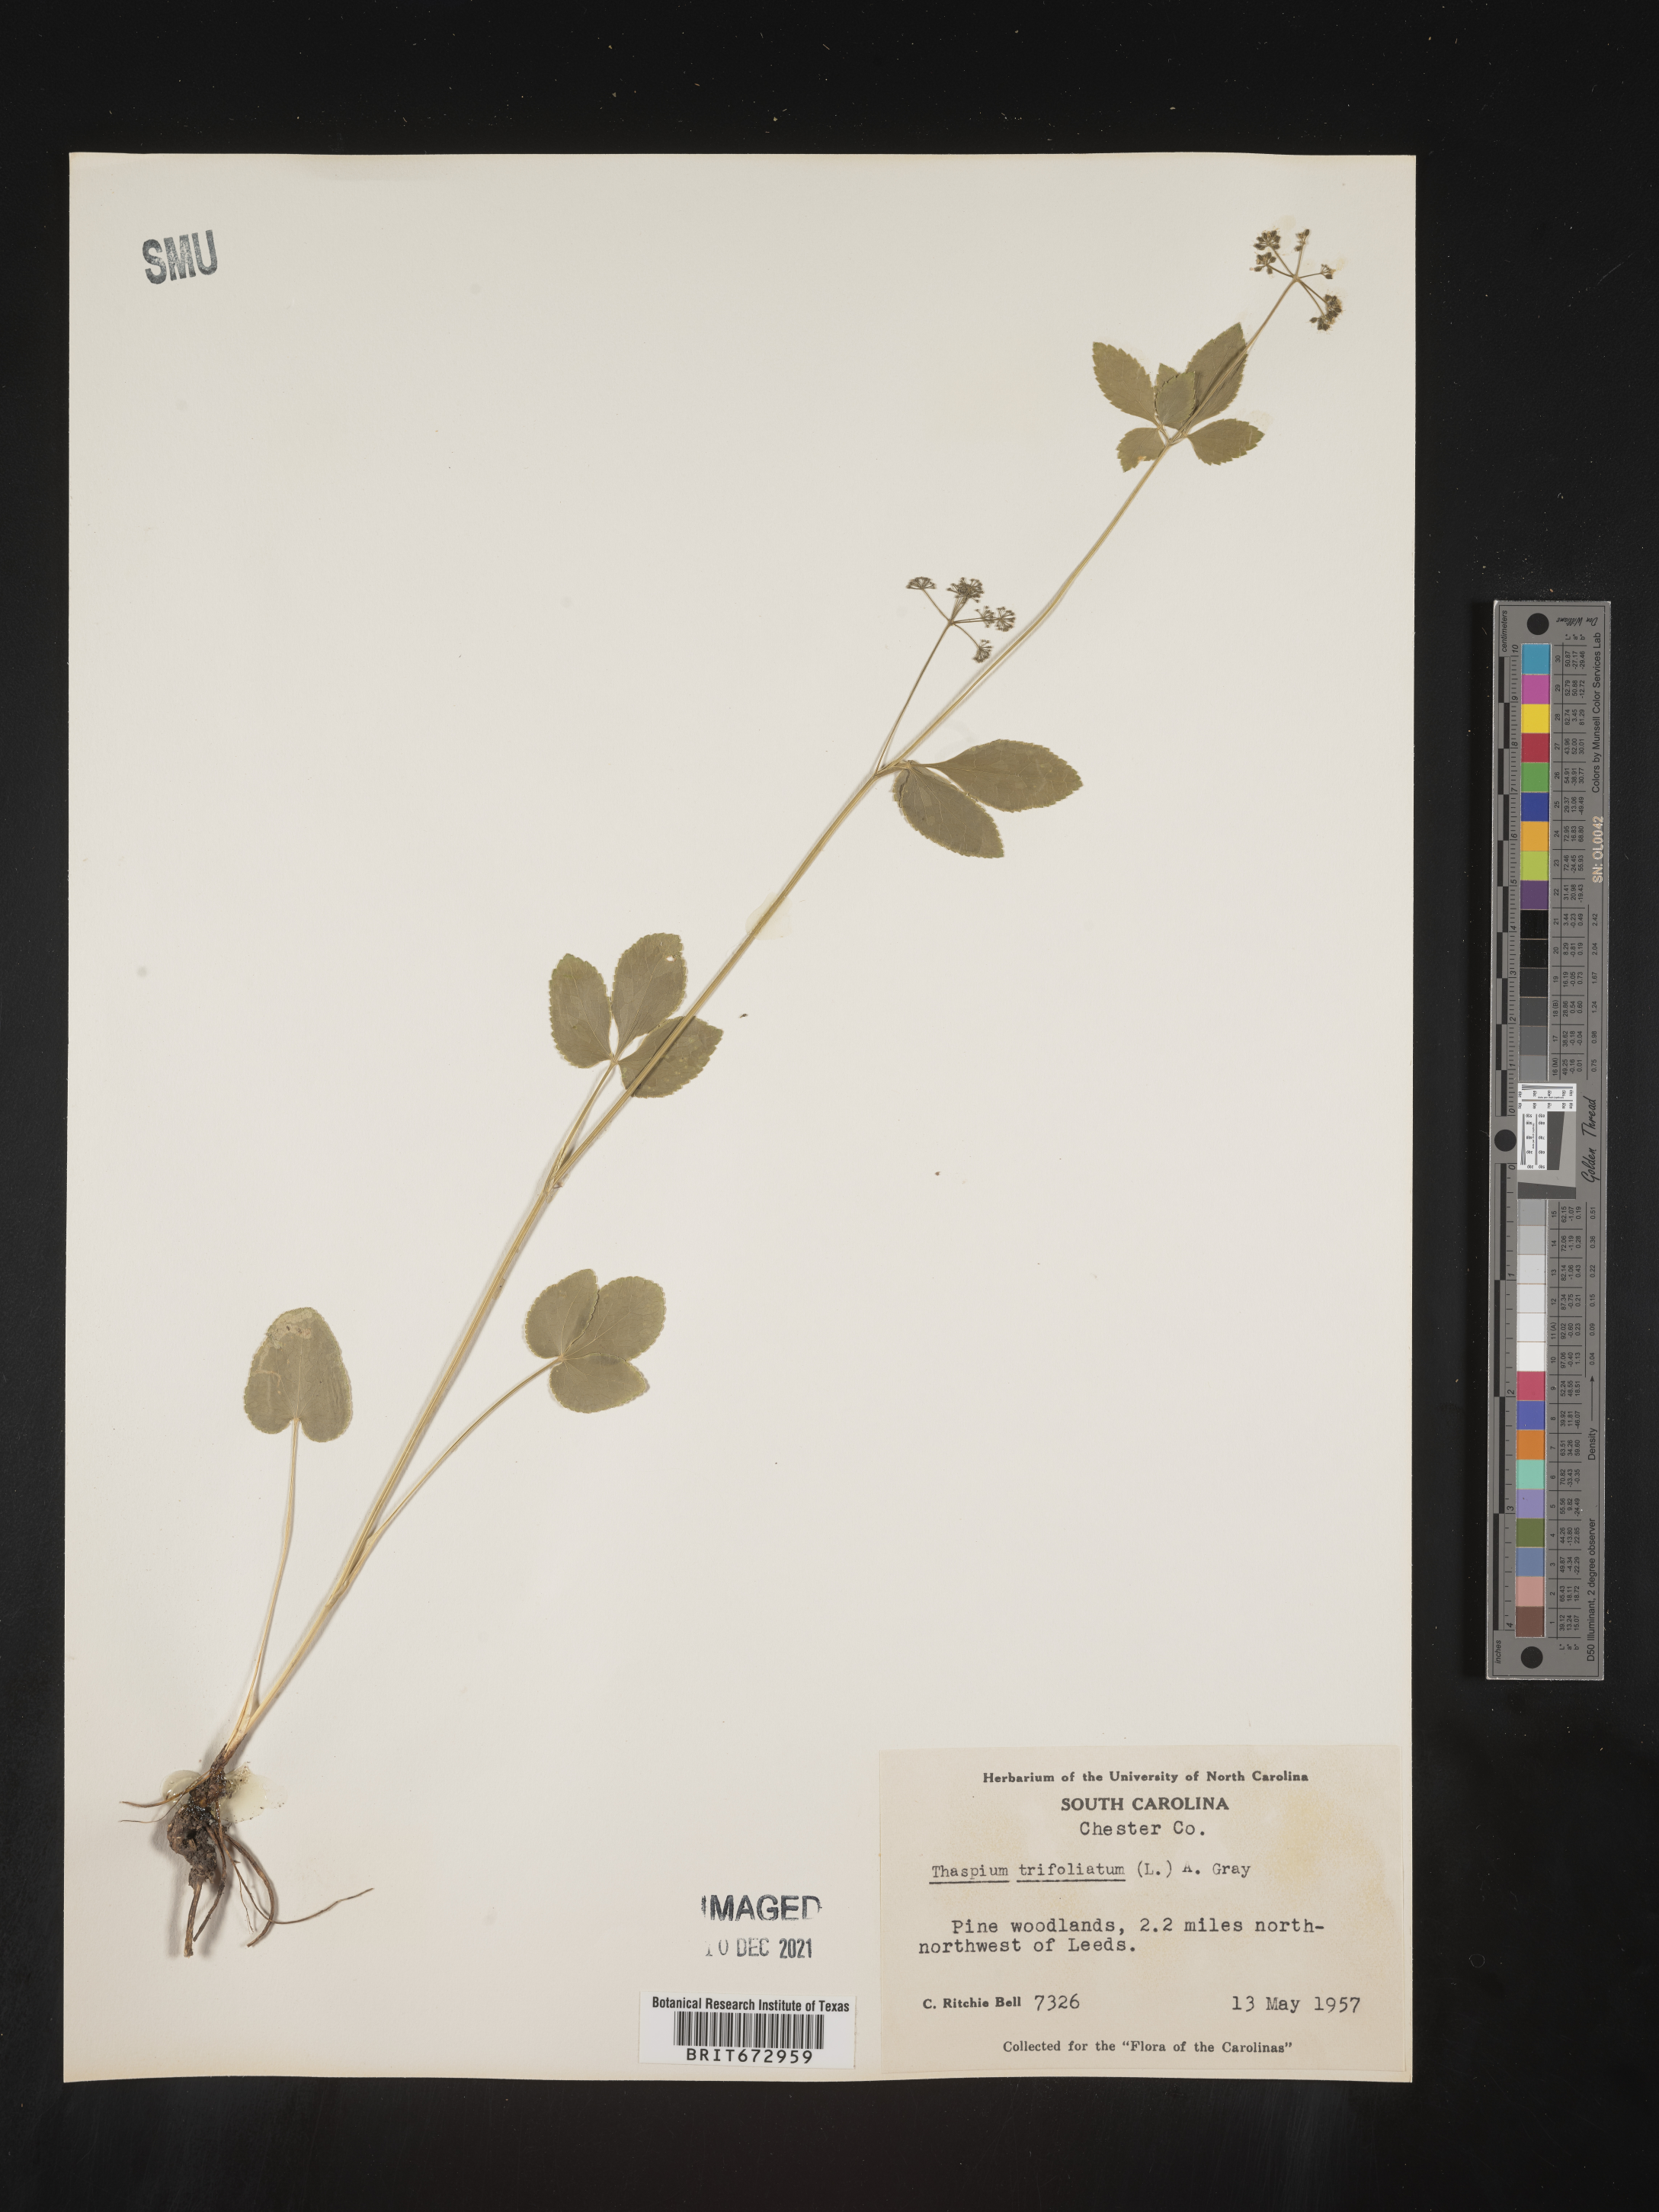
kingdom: Plantae
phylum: Tracheophyta
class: Magnoliopsida
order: Apiales
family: Apiaceae
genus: Thaspium
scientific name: Thaspium
